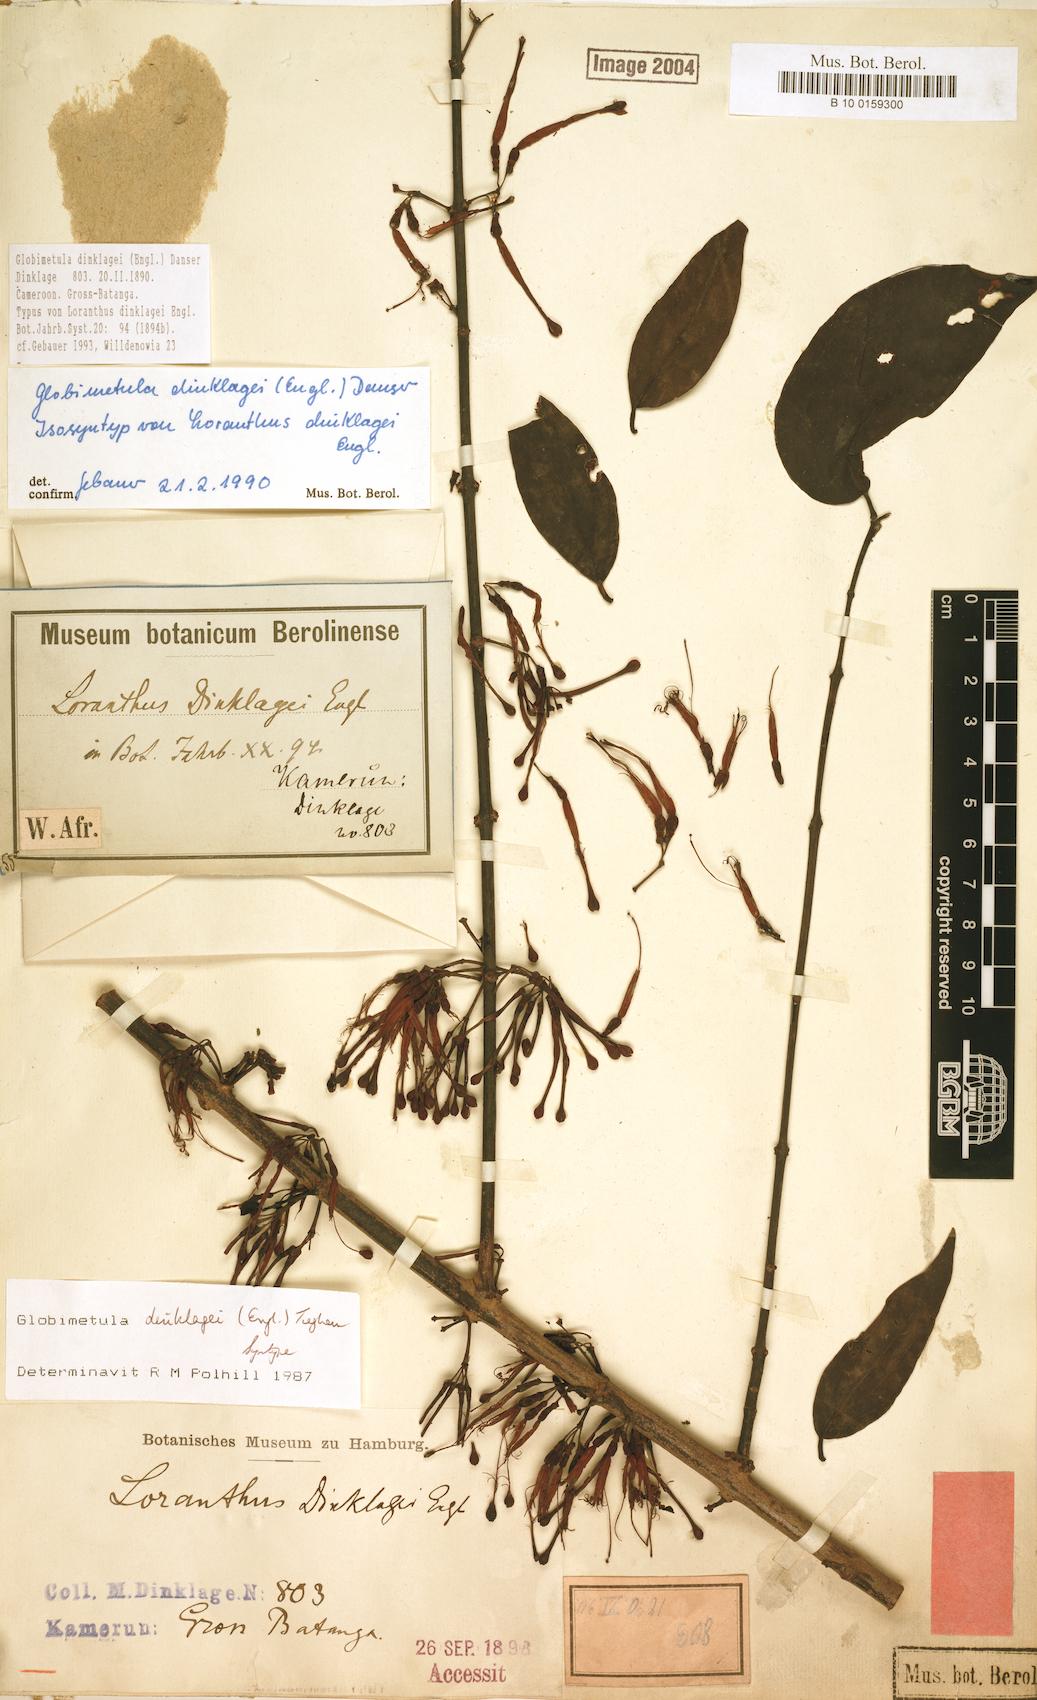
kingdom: Plantae
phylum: Tracheophyta
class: Magnoliopsida
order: Santalales
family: Loranthaceae
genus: Globimetula
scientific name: Globimetula dinklagei
